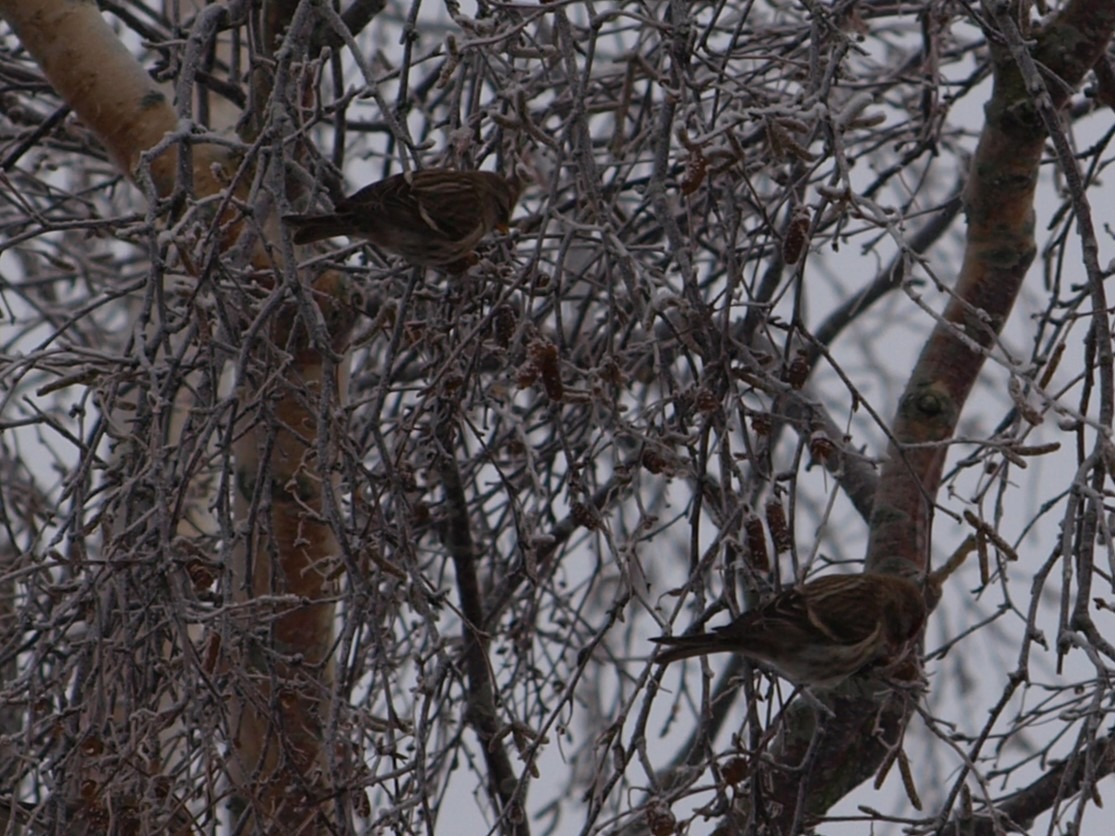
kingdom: Animalia
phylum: Chordata
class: Aves
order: Passeriformes
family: Fringillidae
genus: Acanthis
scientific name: Acanthis flammea
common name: Nordlig gråsisken
